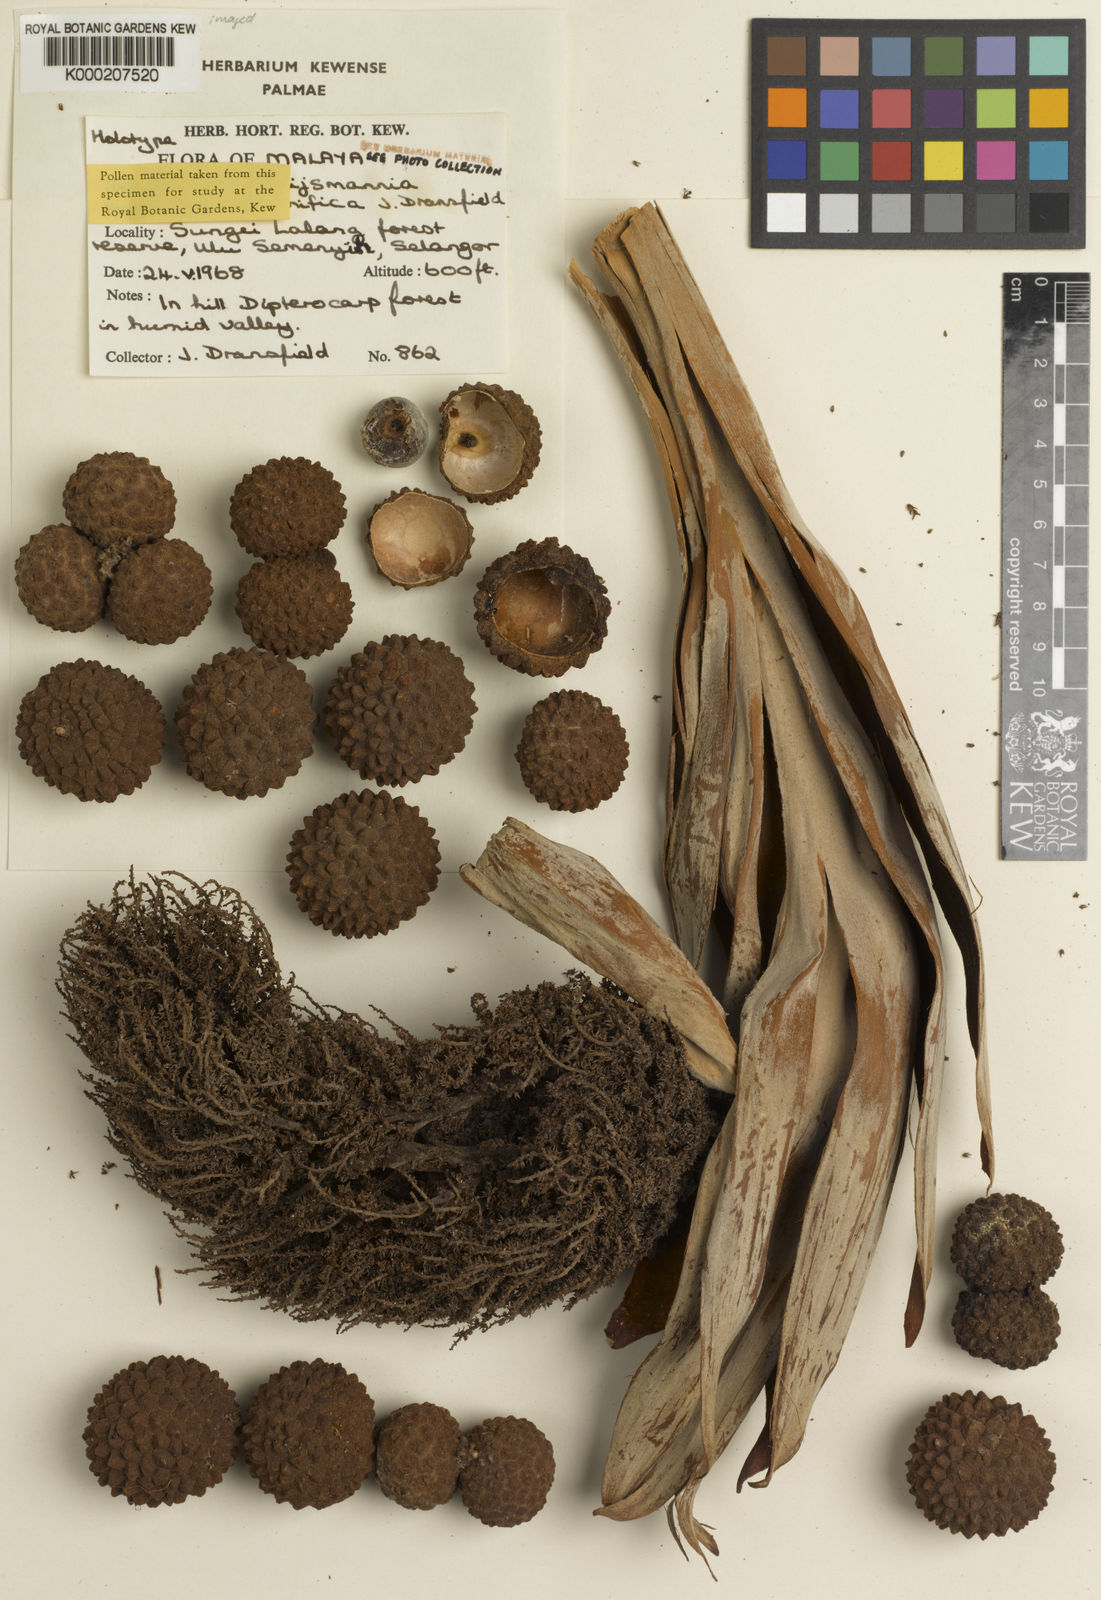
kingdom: Plantae
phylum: Tracheophyta
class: Liliopsida
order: Arecales
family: Arecaceae
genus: Johannesteijsmannia
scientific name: Johannesteijsmannia magnifica
